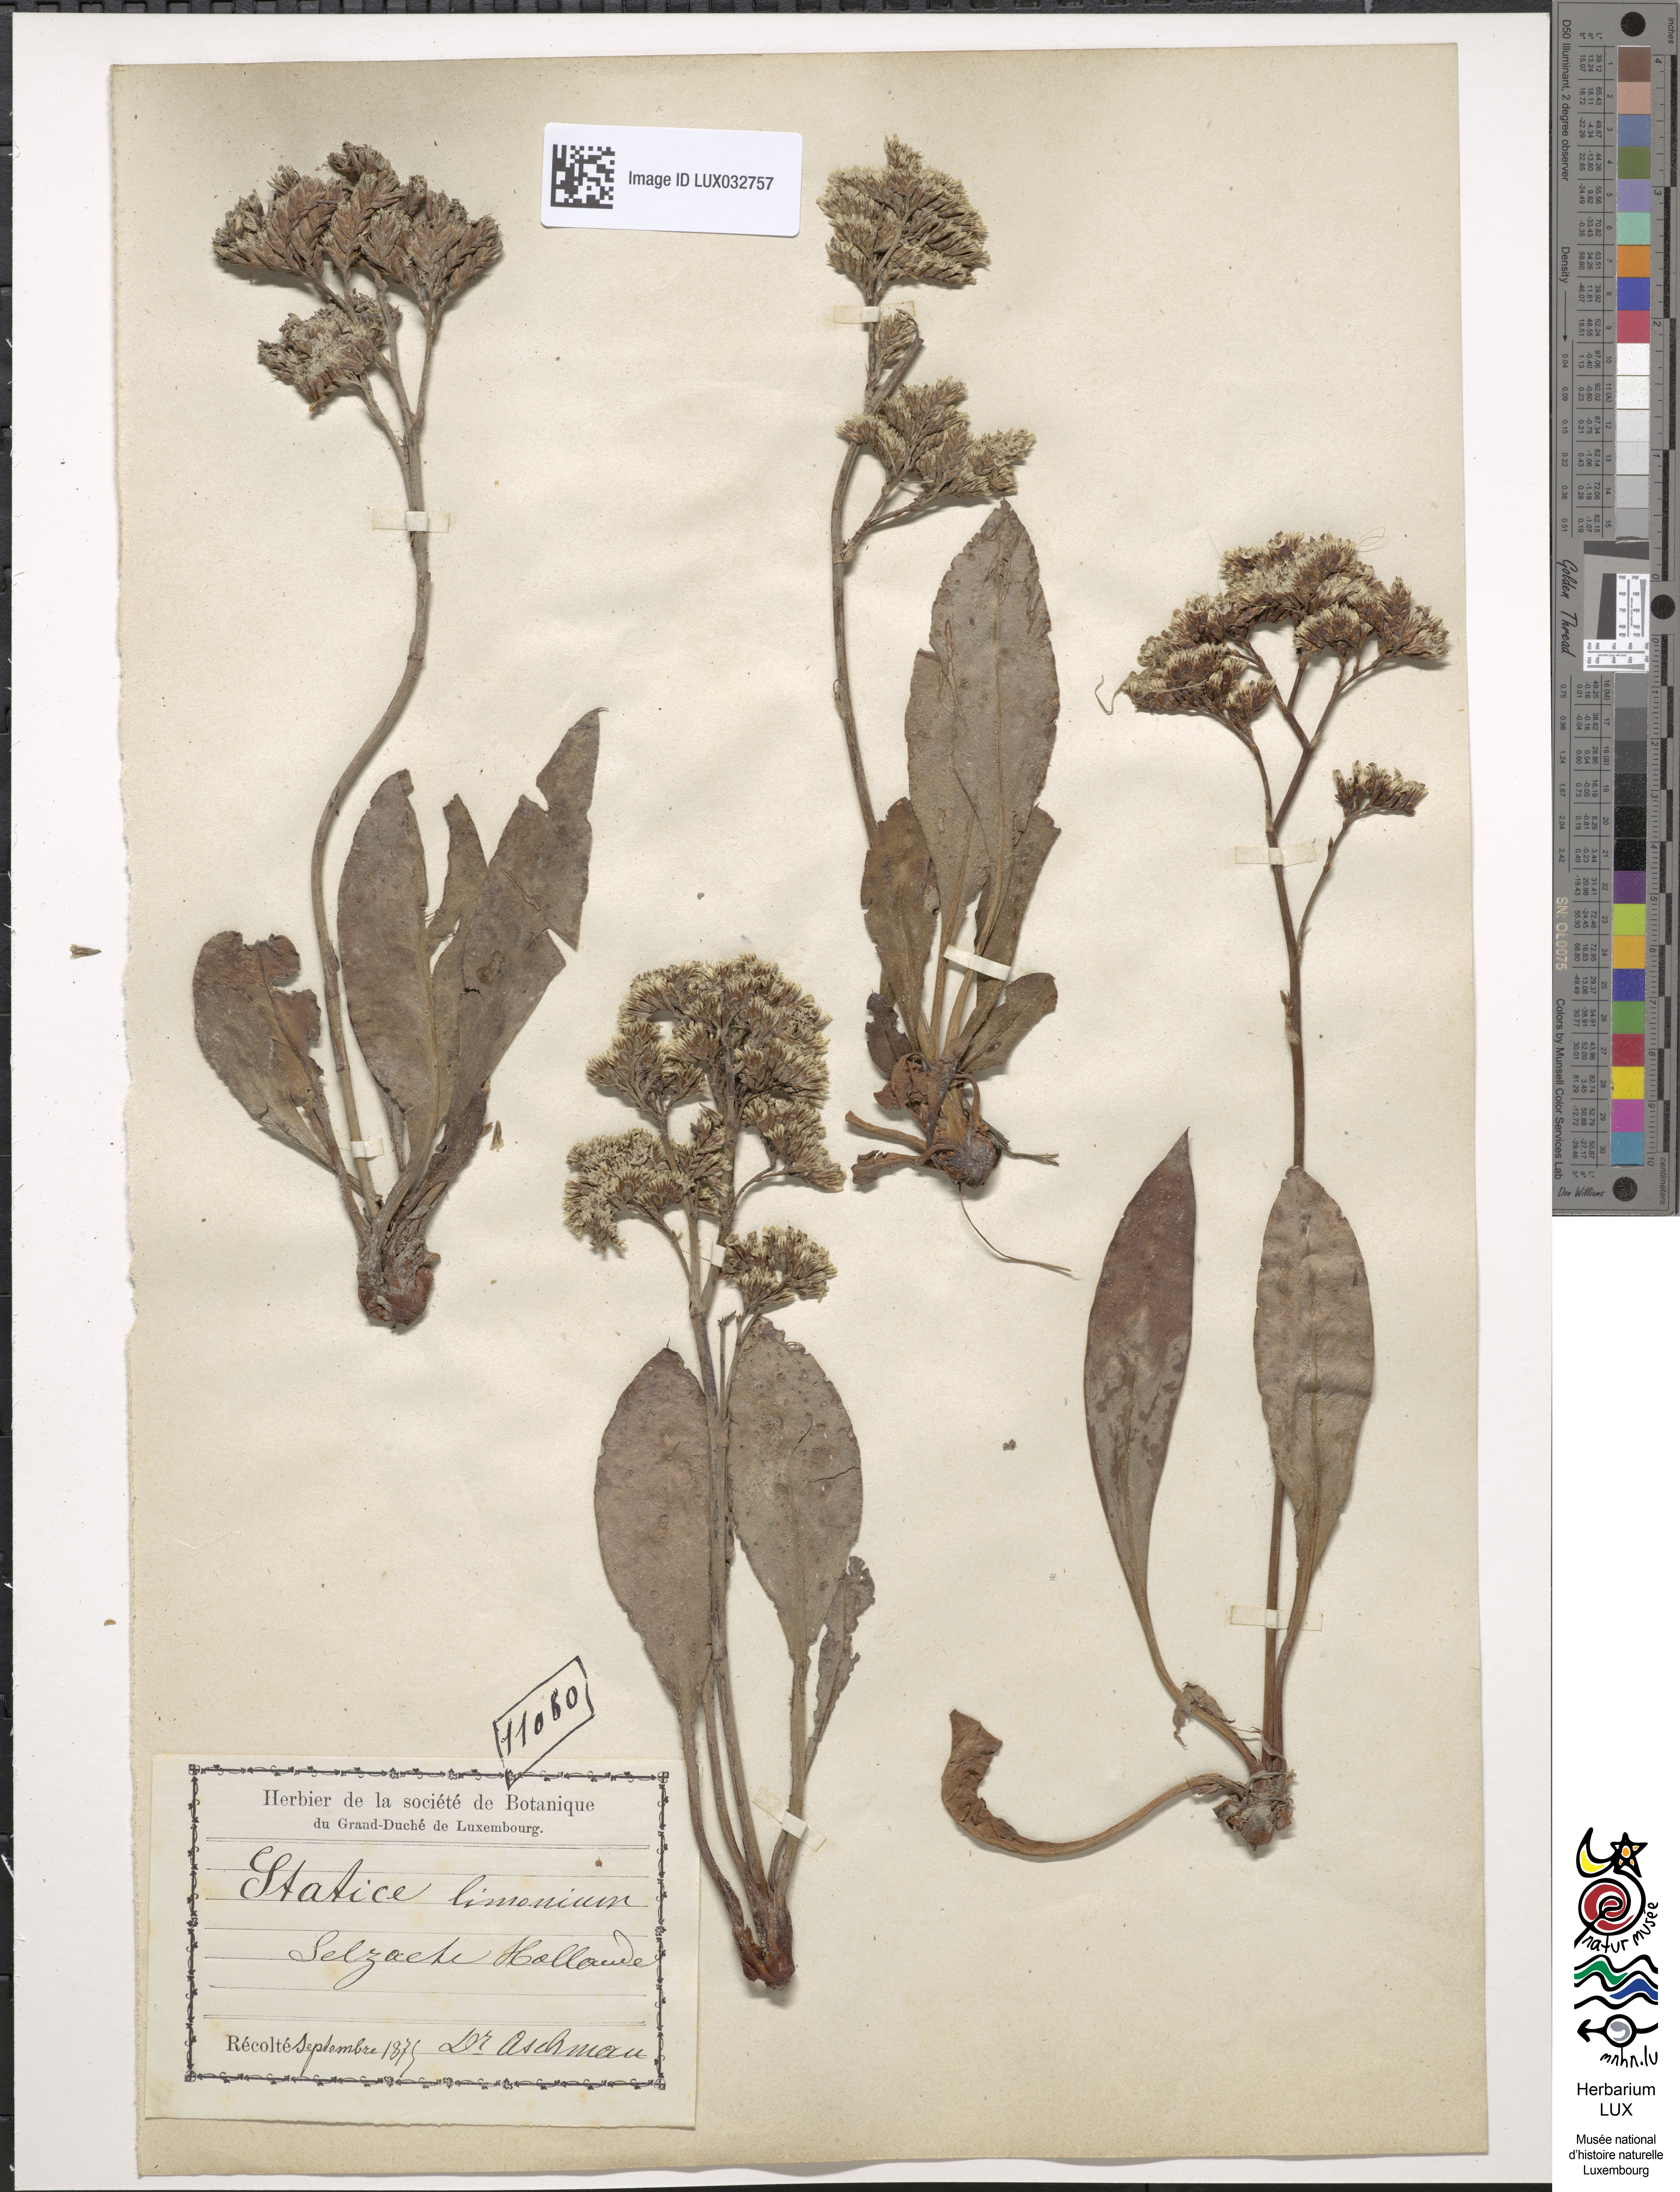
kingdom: Plantae
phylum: Tracheophyta
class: Magnoliopsida
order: Caryophyllales
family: Plumbaginaceae
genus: Limonium
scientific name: Limonium vulgare
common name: Common sea-lavender
